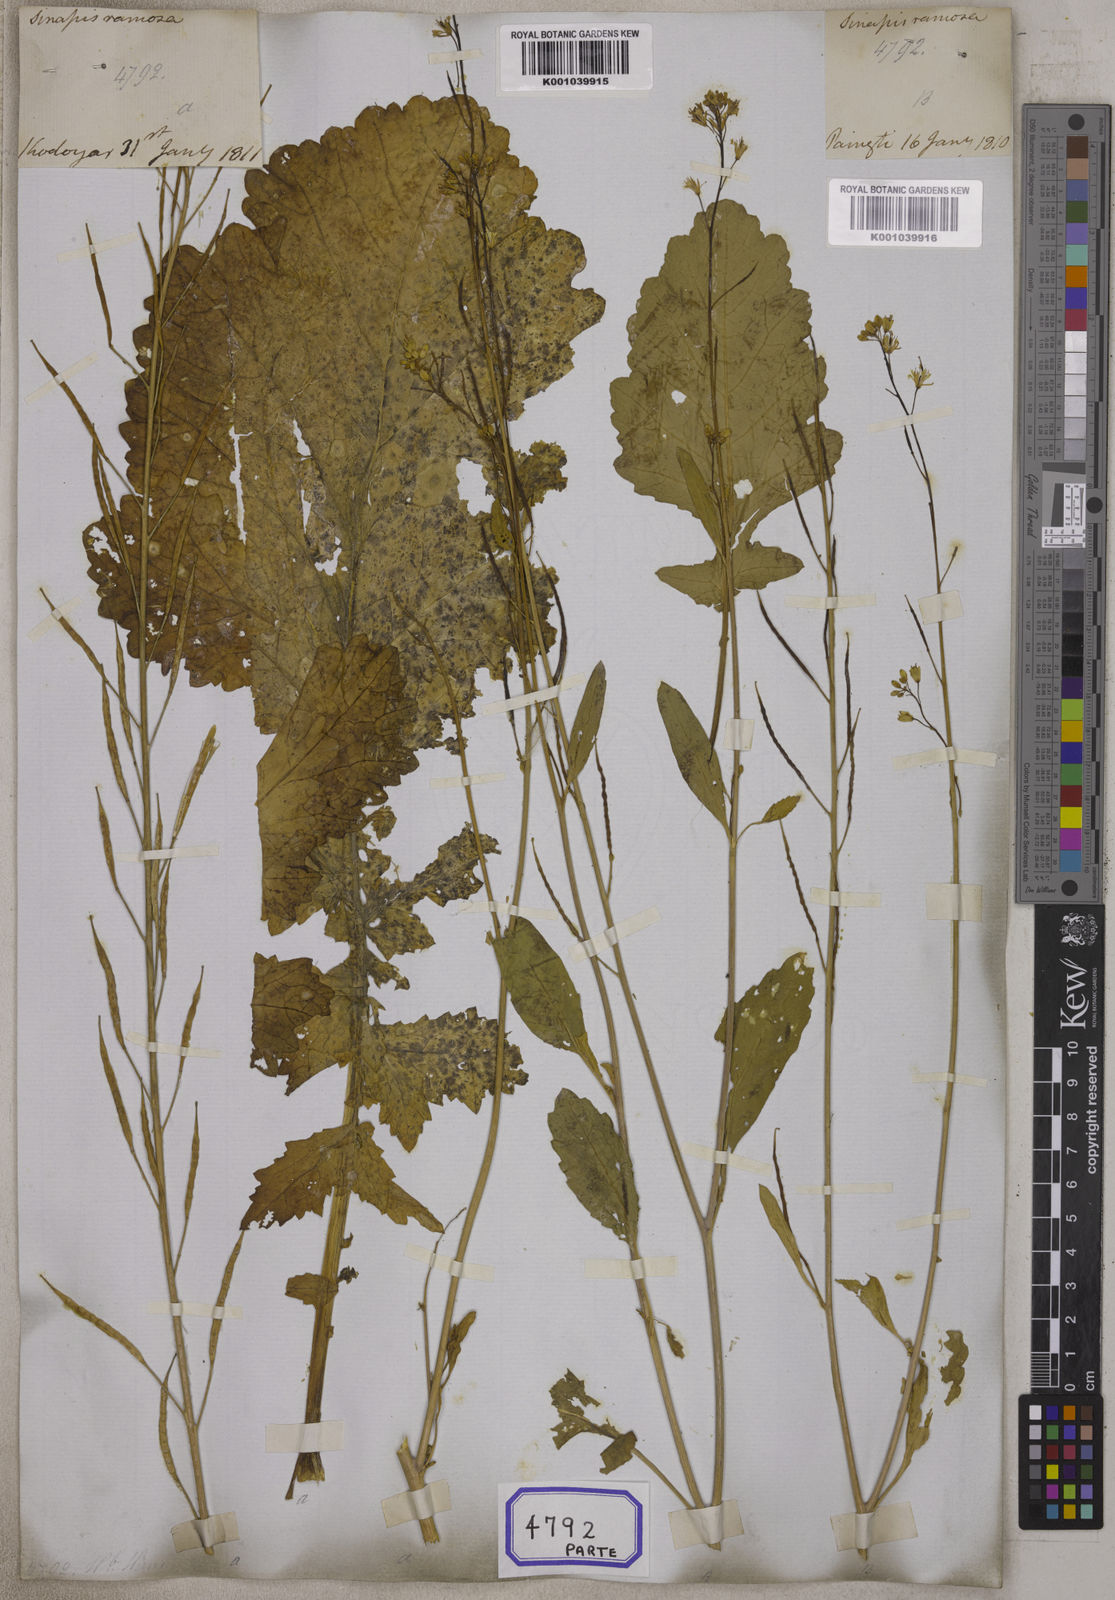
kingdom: Plantae
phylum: Tracheophyta
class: Magnoliopsida
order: Brassicales
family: Brassicaceae
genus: Brassica
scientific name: Brassica juncea
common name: Brown mustard
